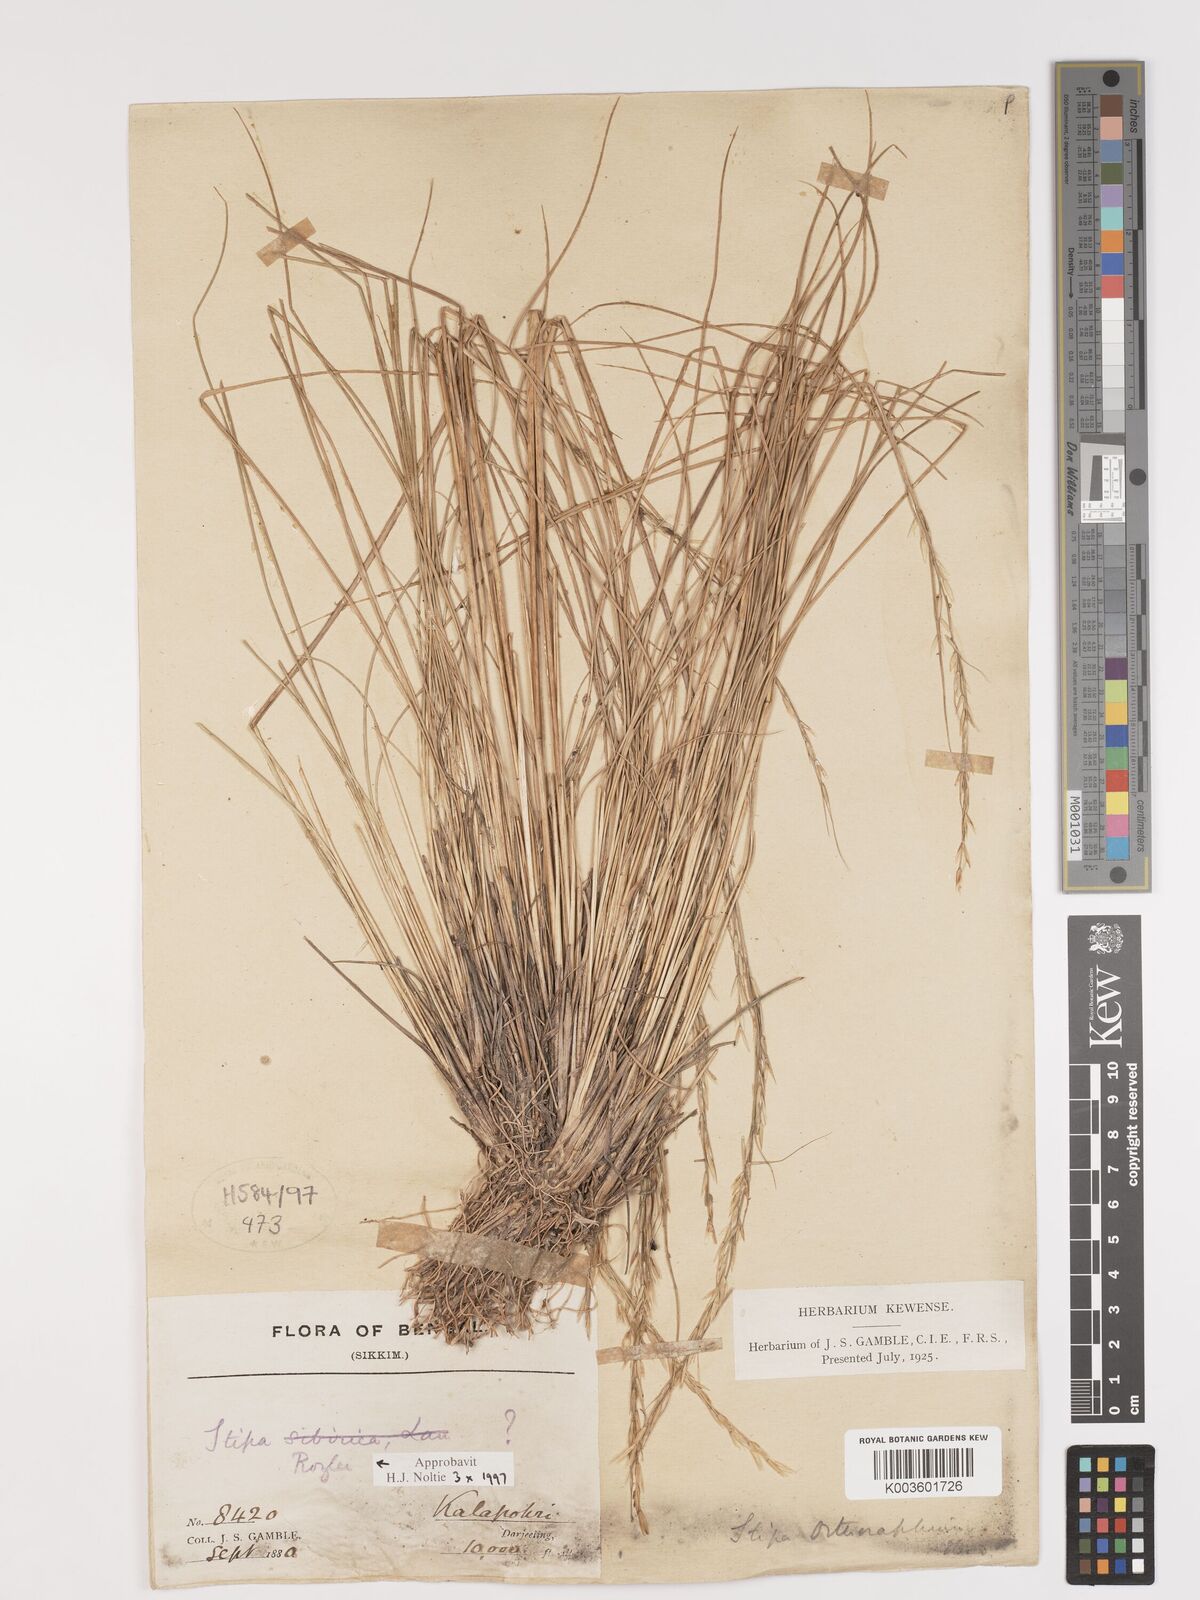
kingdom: Plantae
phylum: Tracheophyta
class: Liliopsida
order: Poales
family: Poaceae
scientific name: Poaceae
